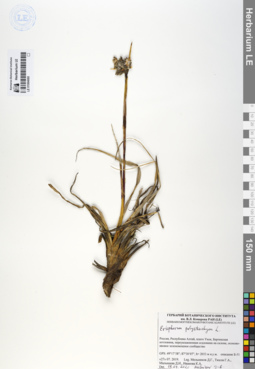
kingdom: Plantae
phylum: Tracheophyta
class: Liliopsida
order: Poales
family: Cyperaceae
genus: Eriophorum
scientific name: Eriophorum angustifolium
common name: Common cottongrass
